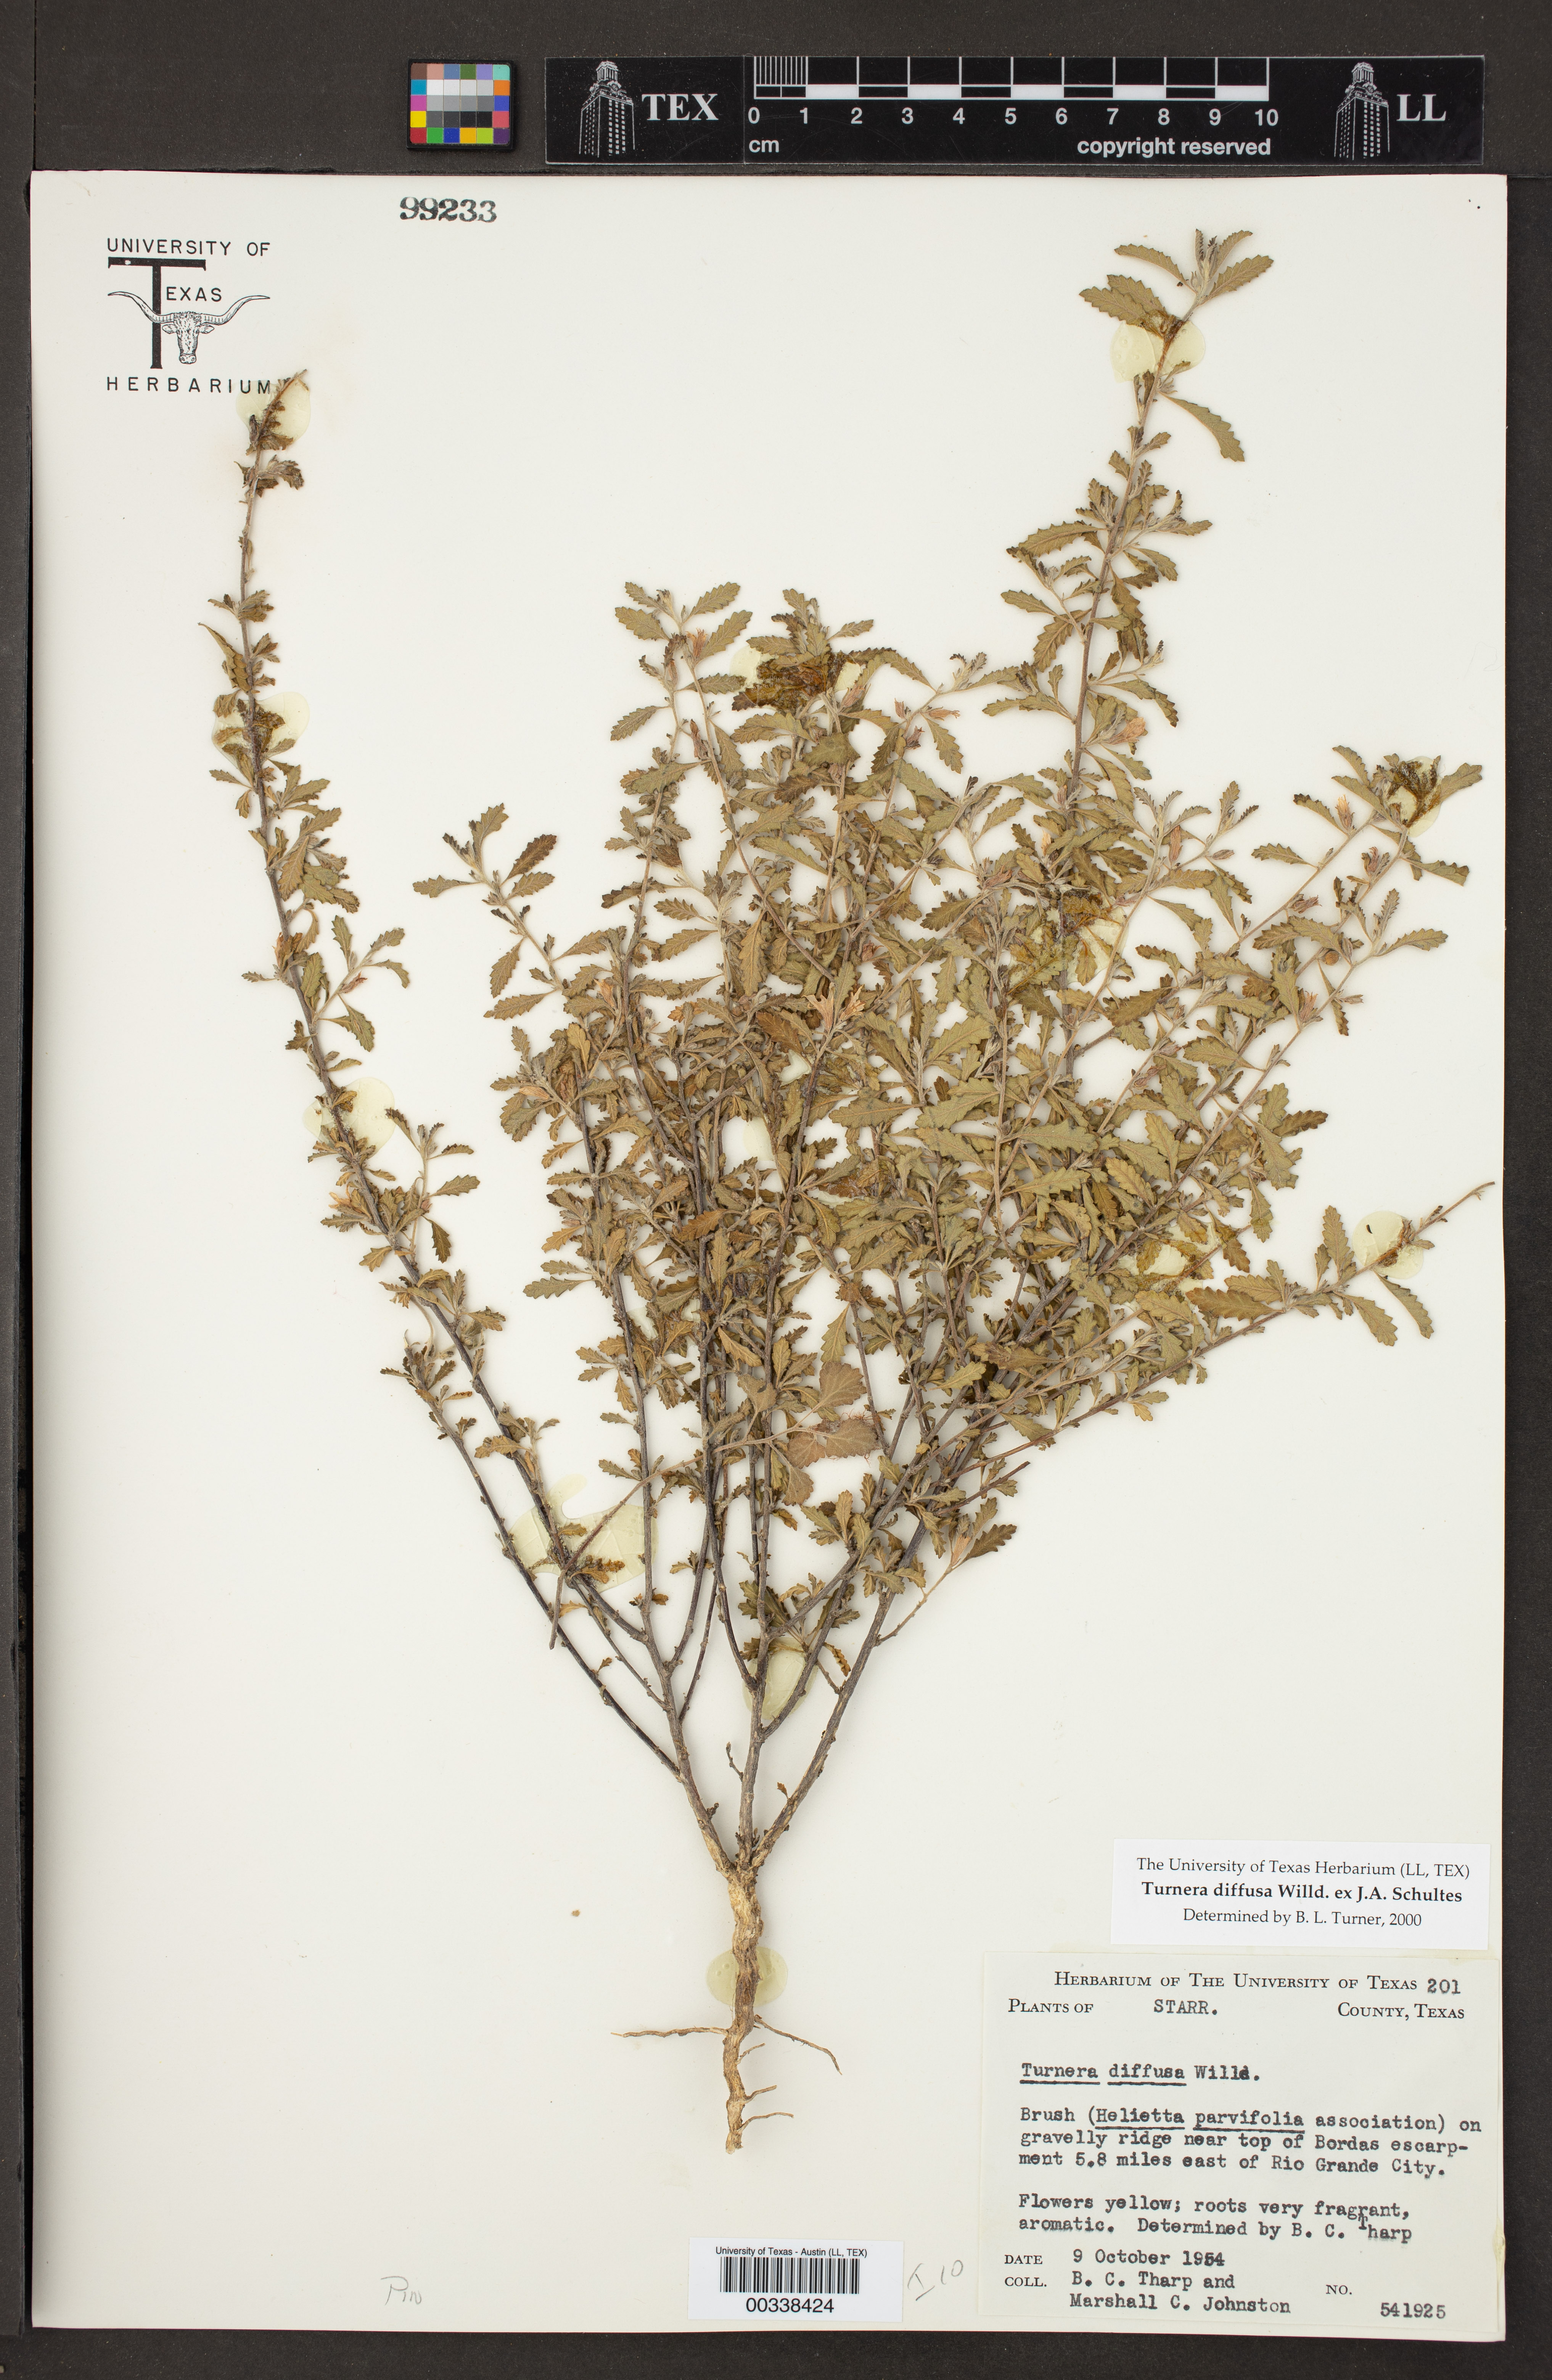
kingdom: Plantae
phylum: Tracheophyta
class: Magnoliopsida
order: Malpighiales
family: Turneraceae
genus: Turnera
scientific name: Turnera diffusa
